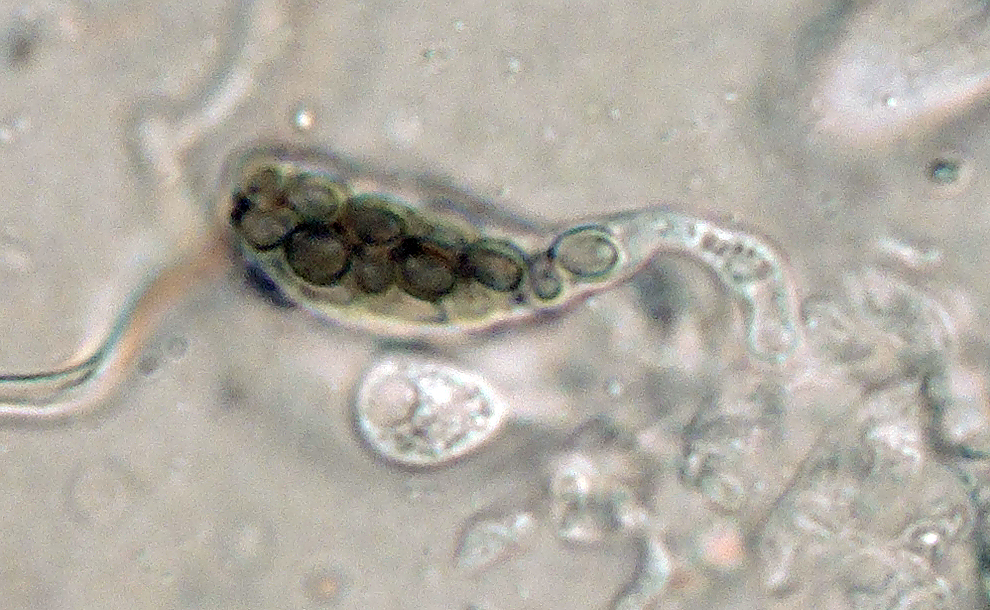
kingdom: Fungi
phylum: Ascomycota
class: Dothideomycetes
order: Pleosporales
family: Sporormiaceae
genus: Westerdykella
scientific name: Westerdykella cylindrica
